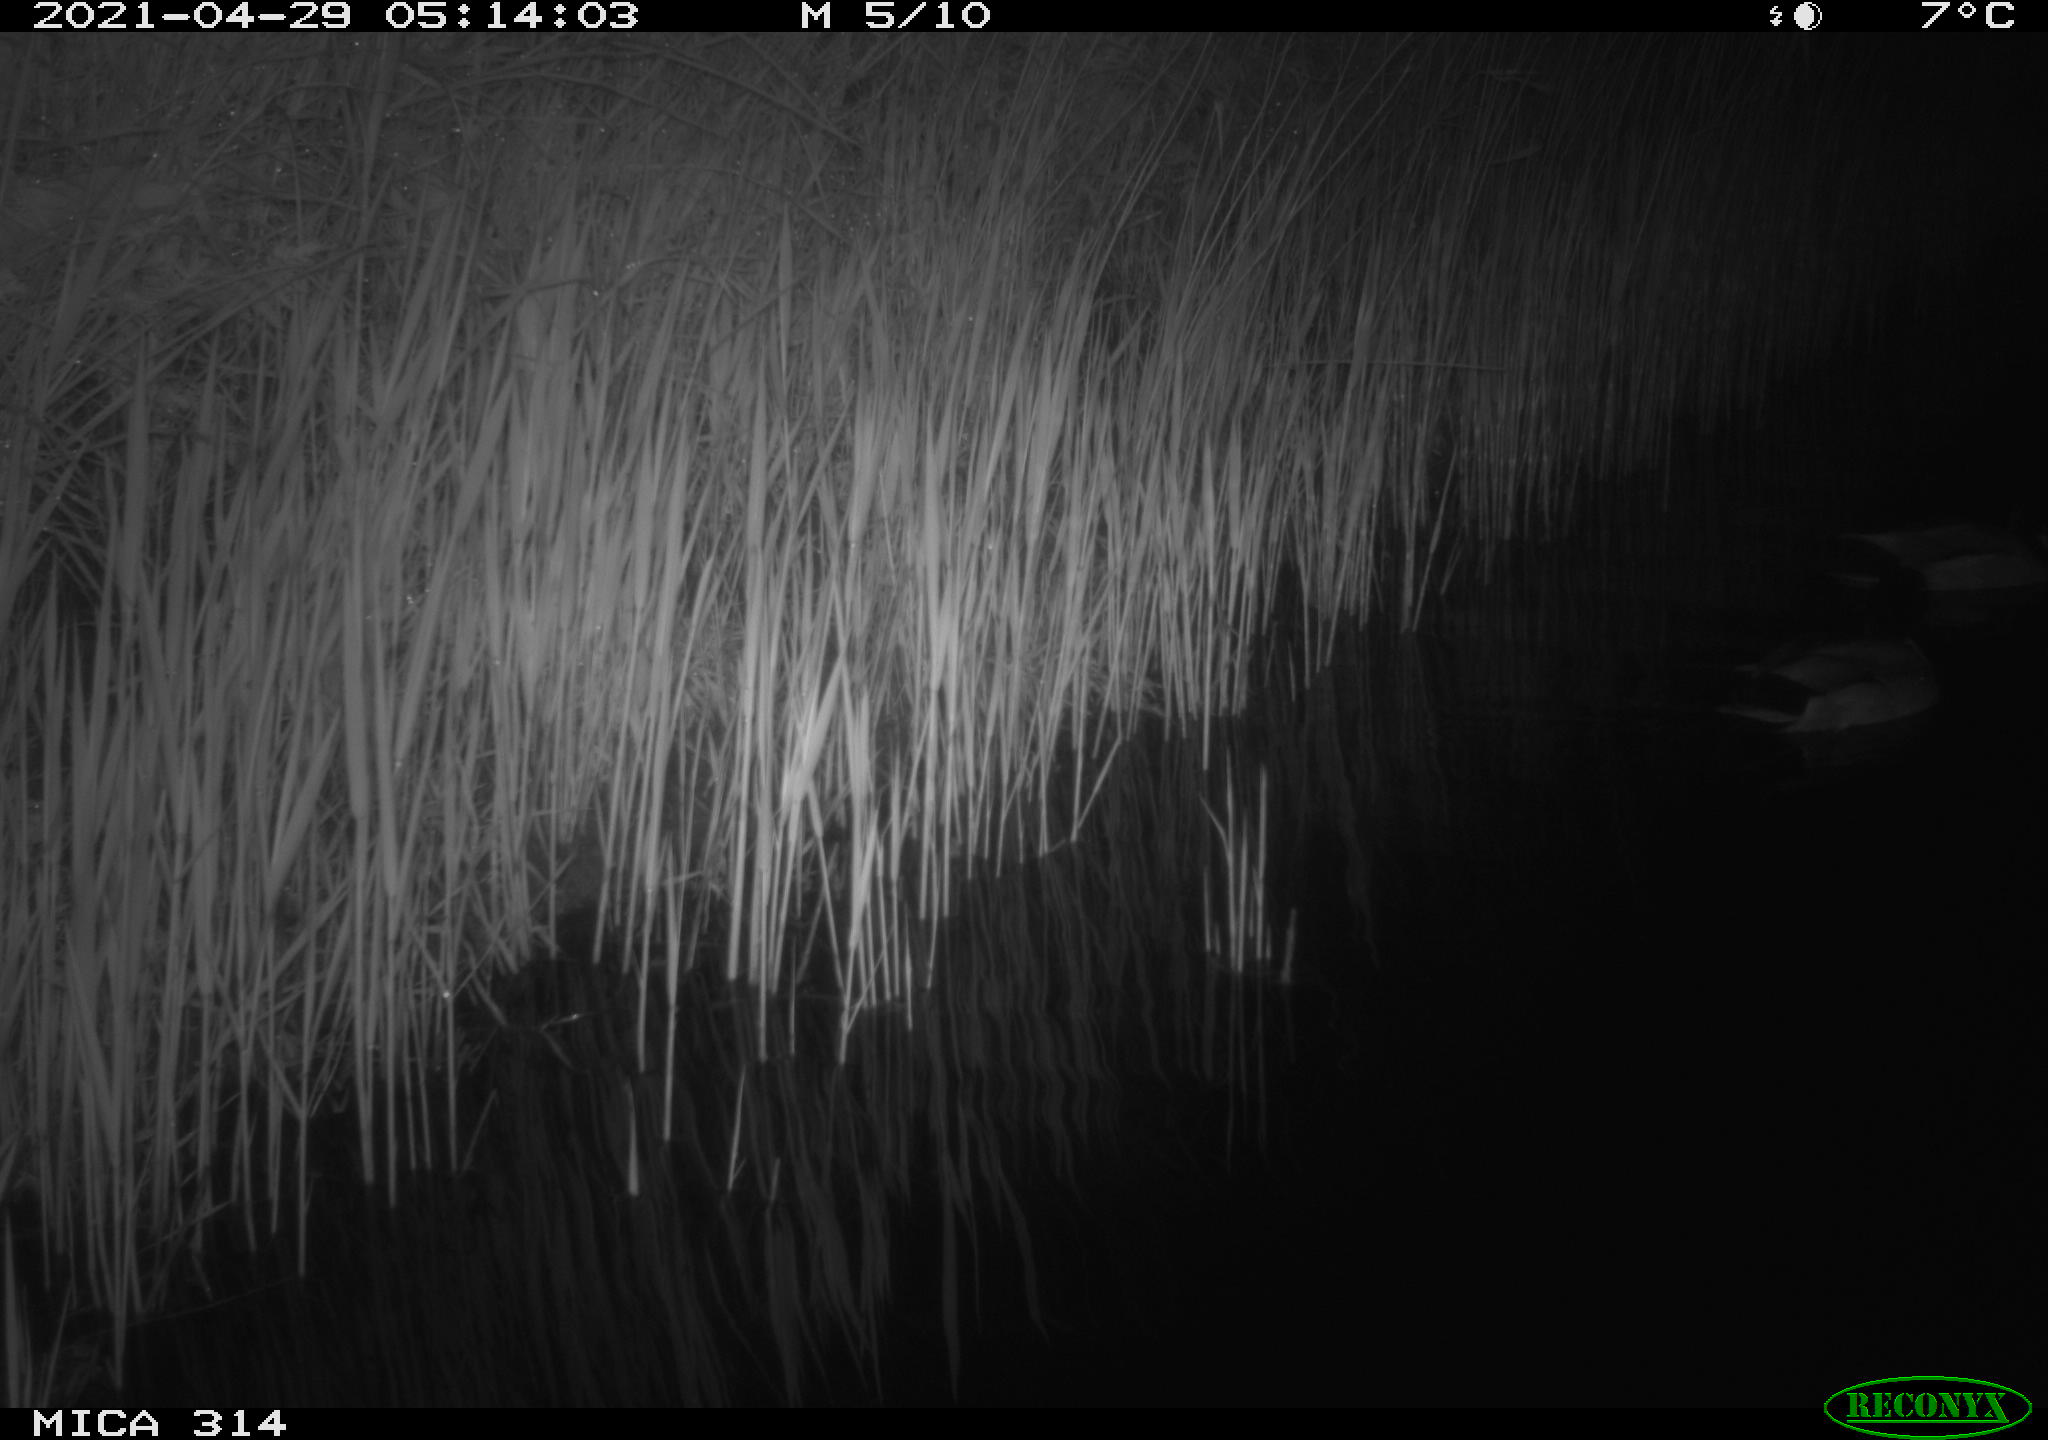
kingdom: Animalia
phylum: Chordata
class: Aves
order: Anseriformes
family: Anatidae
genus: Anas
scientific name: Anas platyrhynchos
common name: Mallard
